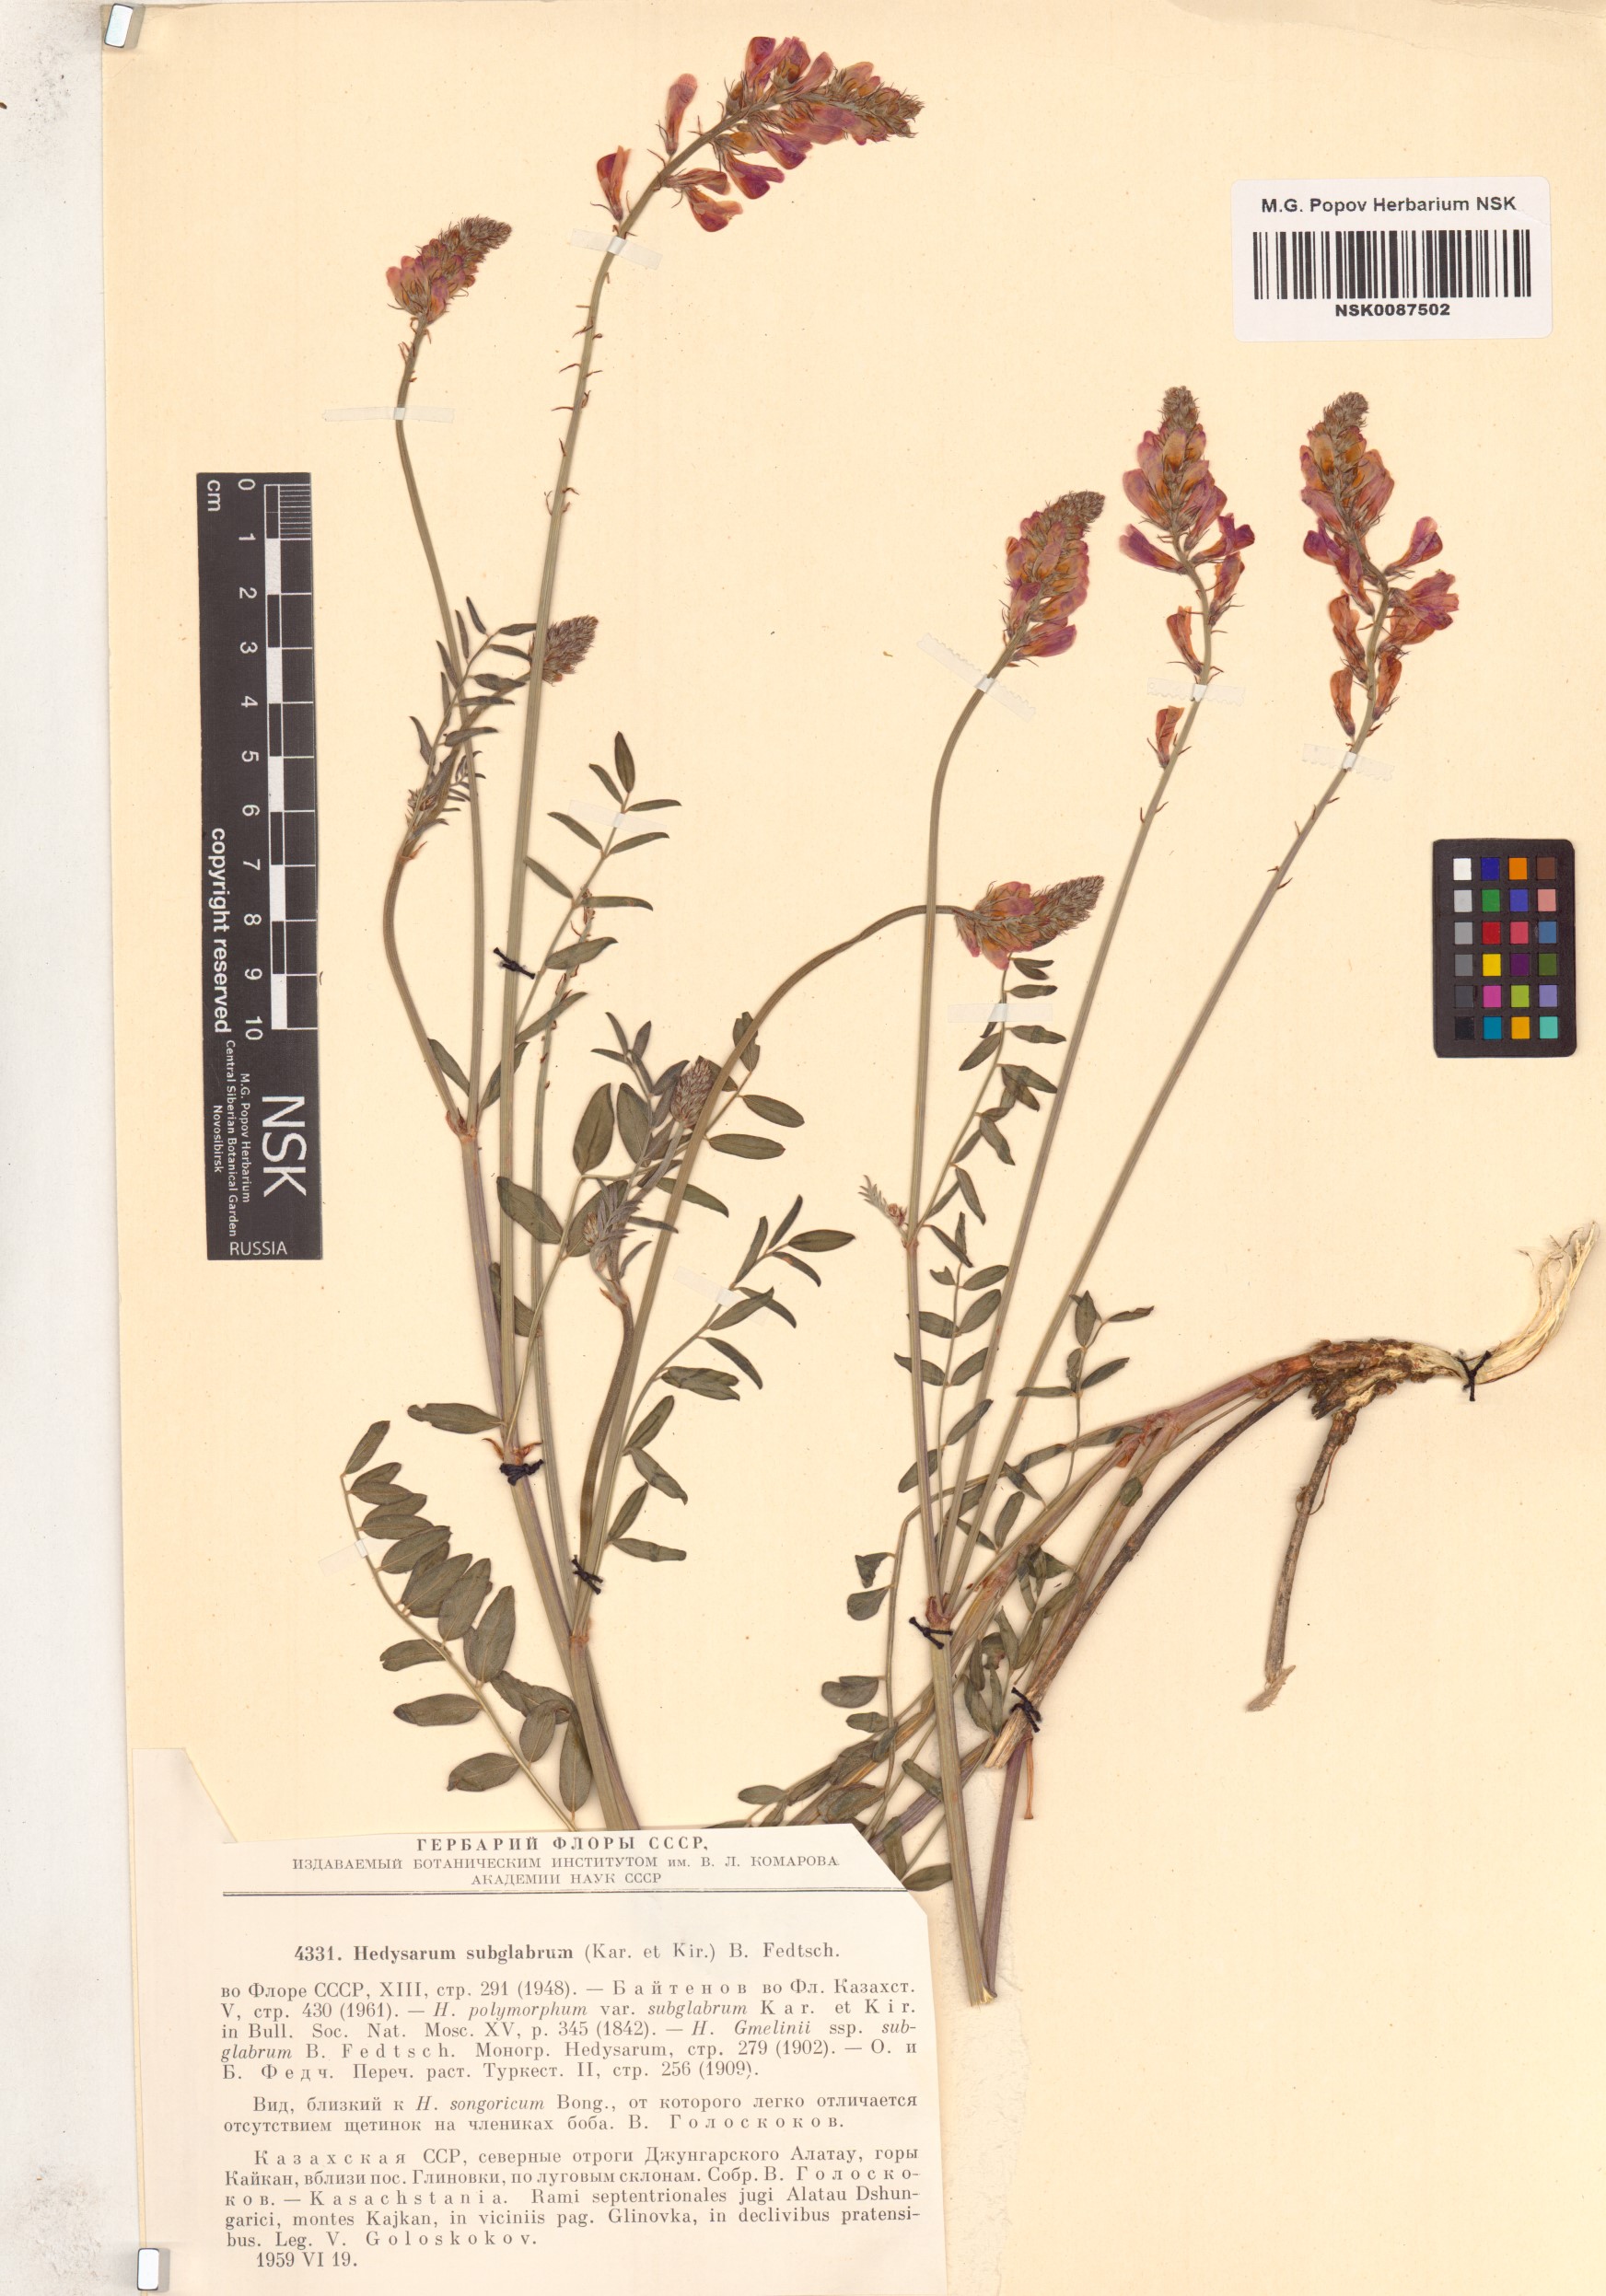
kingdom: Plantae
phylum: Tracheophyta
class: Magnoliopsida
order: Fabales
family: Fabaceae
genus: Hedysarum
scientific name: Hedysarum subglabrum
